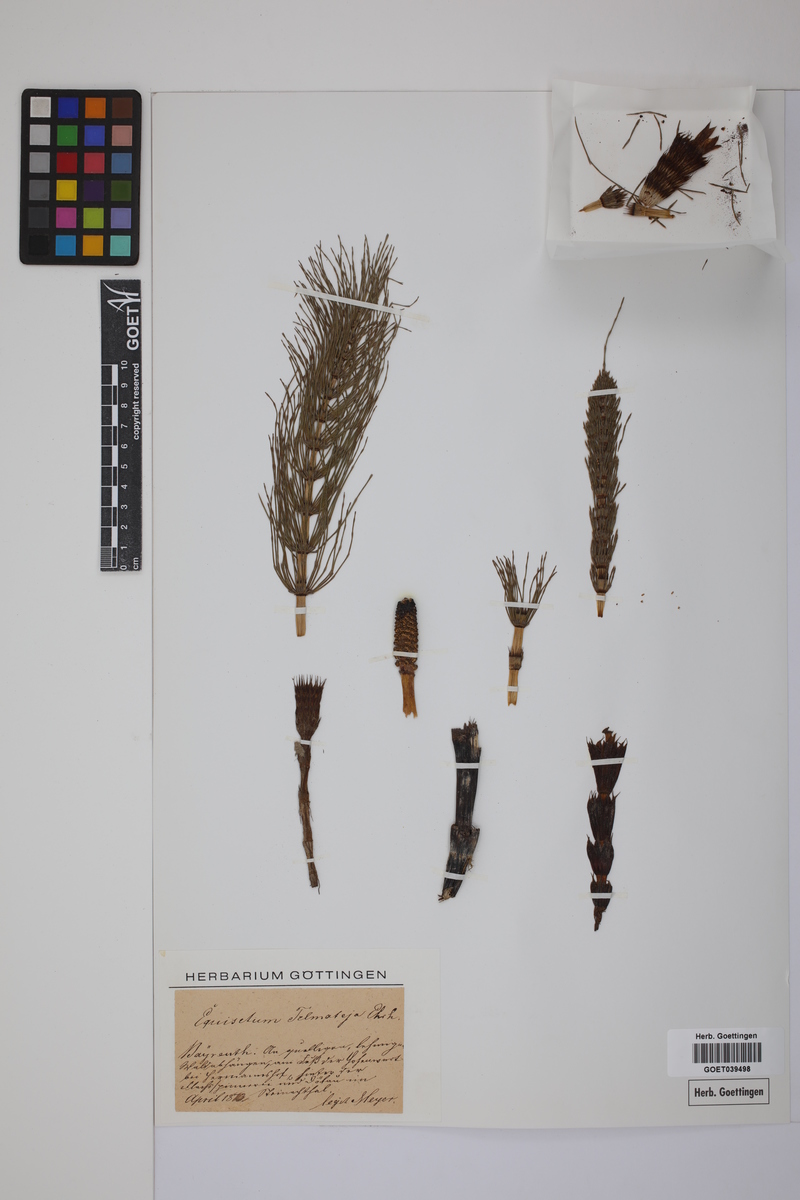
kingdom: Plantae
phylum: Tracheophyta
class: Polypodiopsida
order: Equisetales
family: Equisetaceae
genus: Equisetum
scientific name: Equisetum telmateia
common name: Great horsetail
